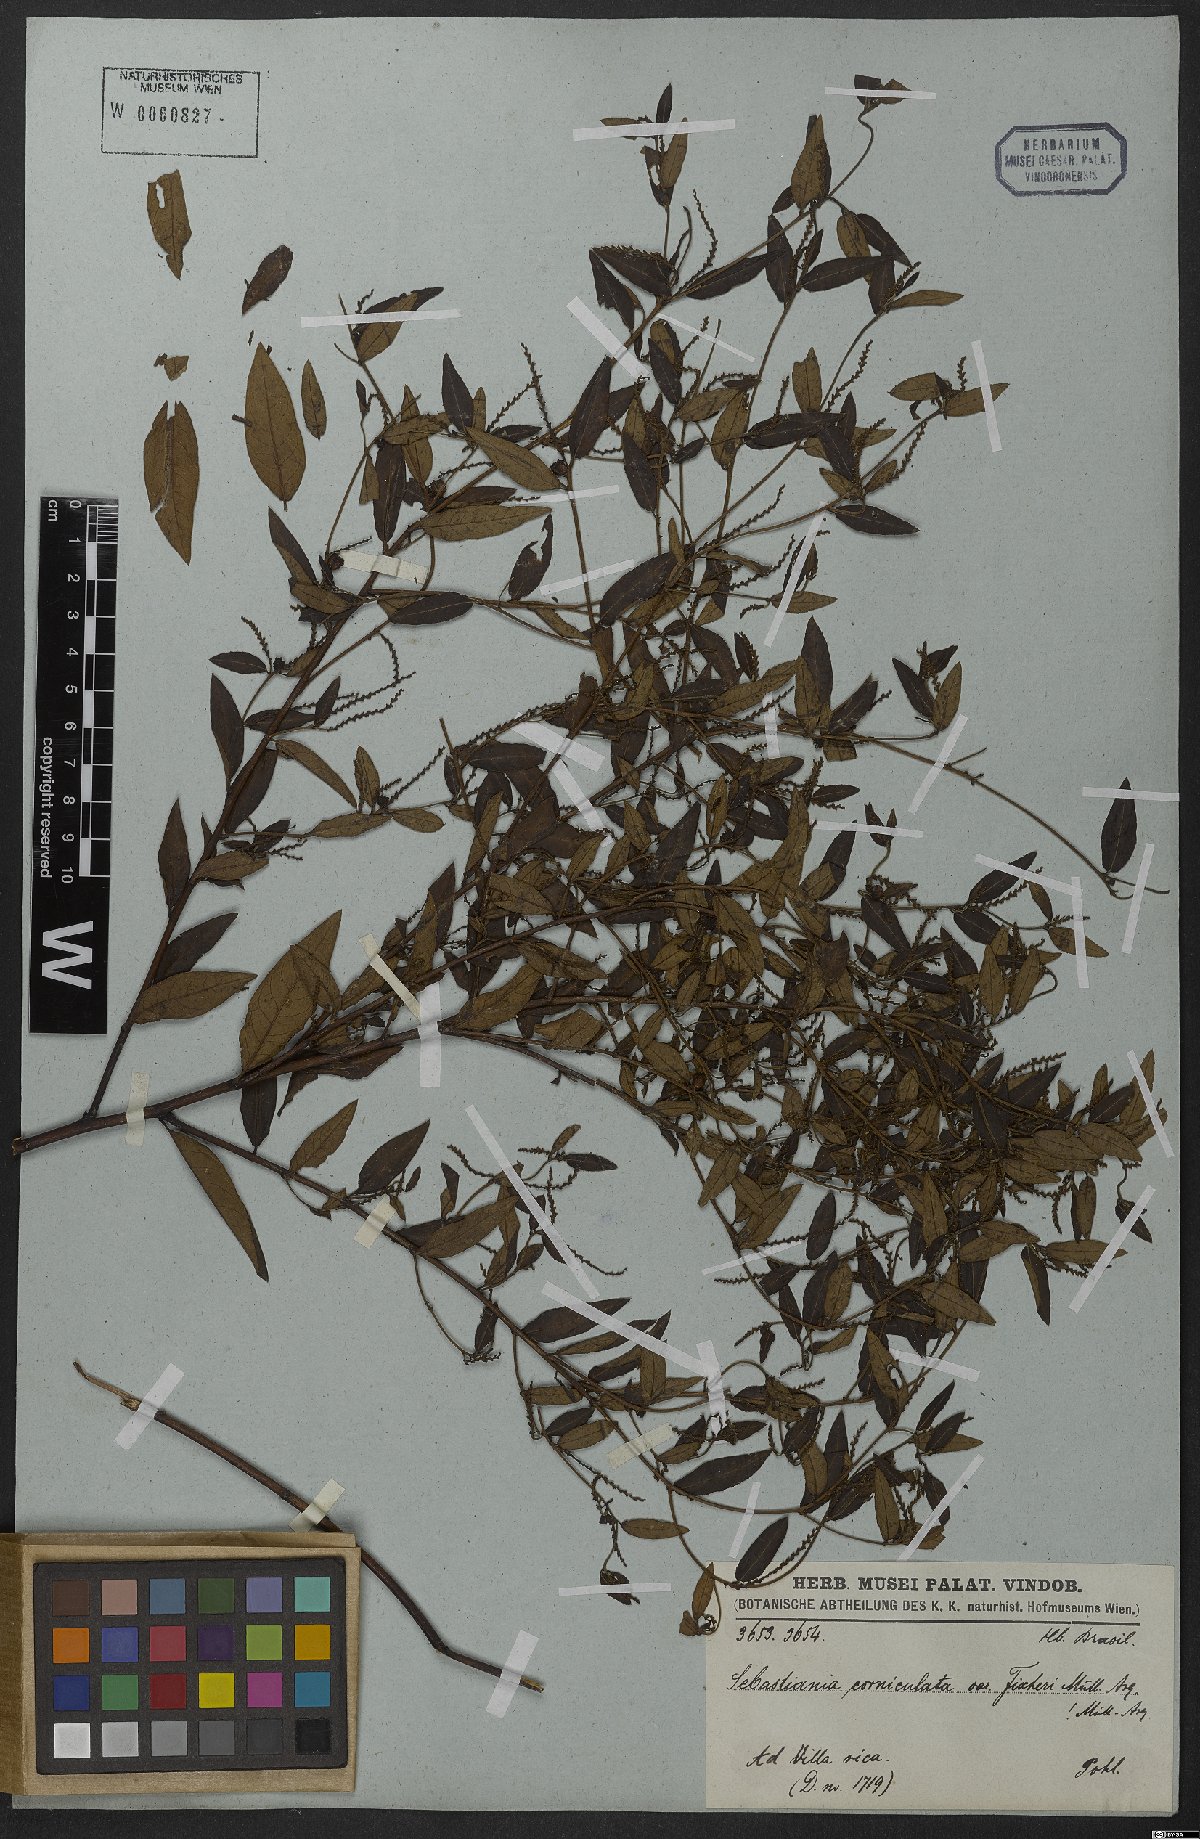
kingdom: Plantae
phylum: Tracheophyta
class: Magnoliopsida
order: Malpighiales
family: Euphorbiaceae
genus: Microstachys
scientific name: Microstachys salicifolia
